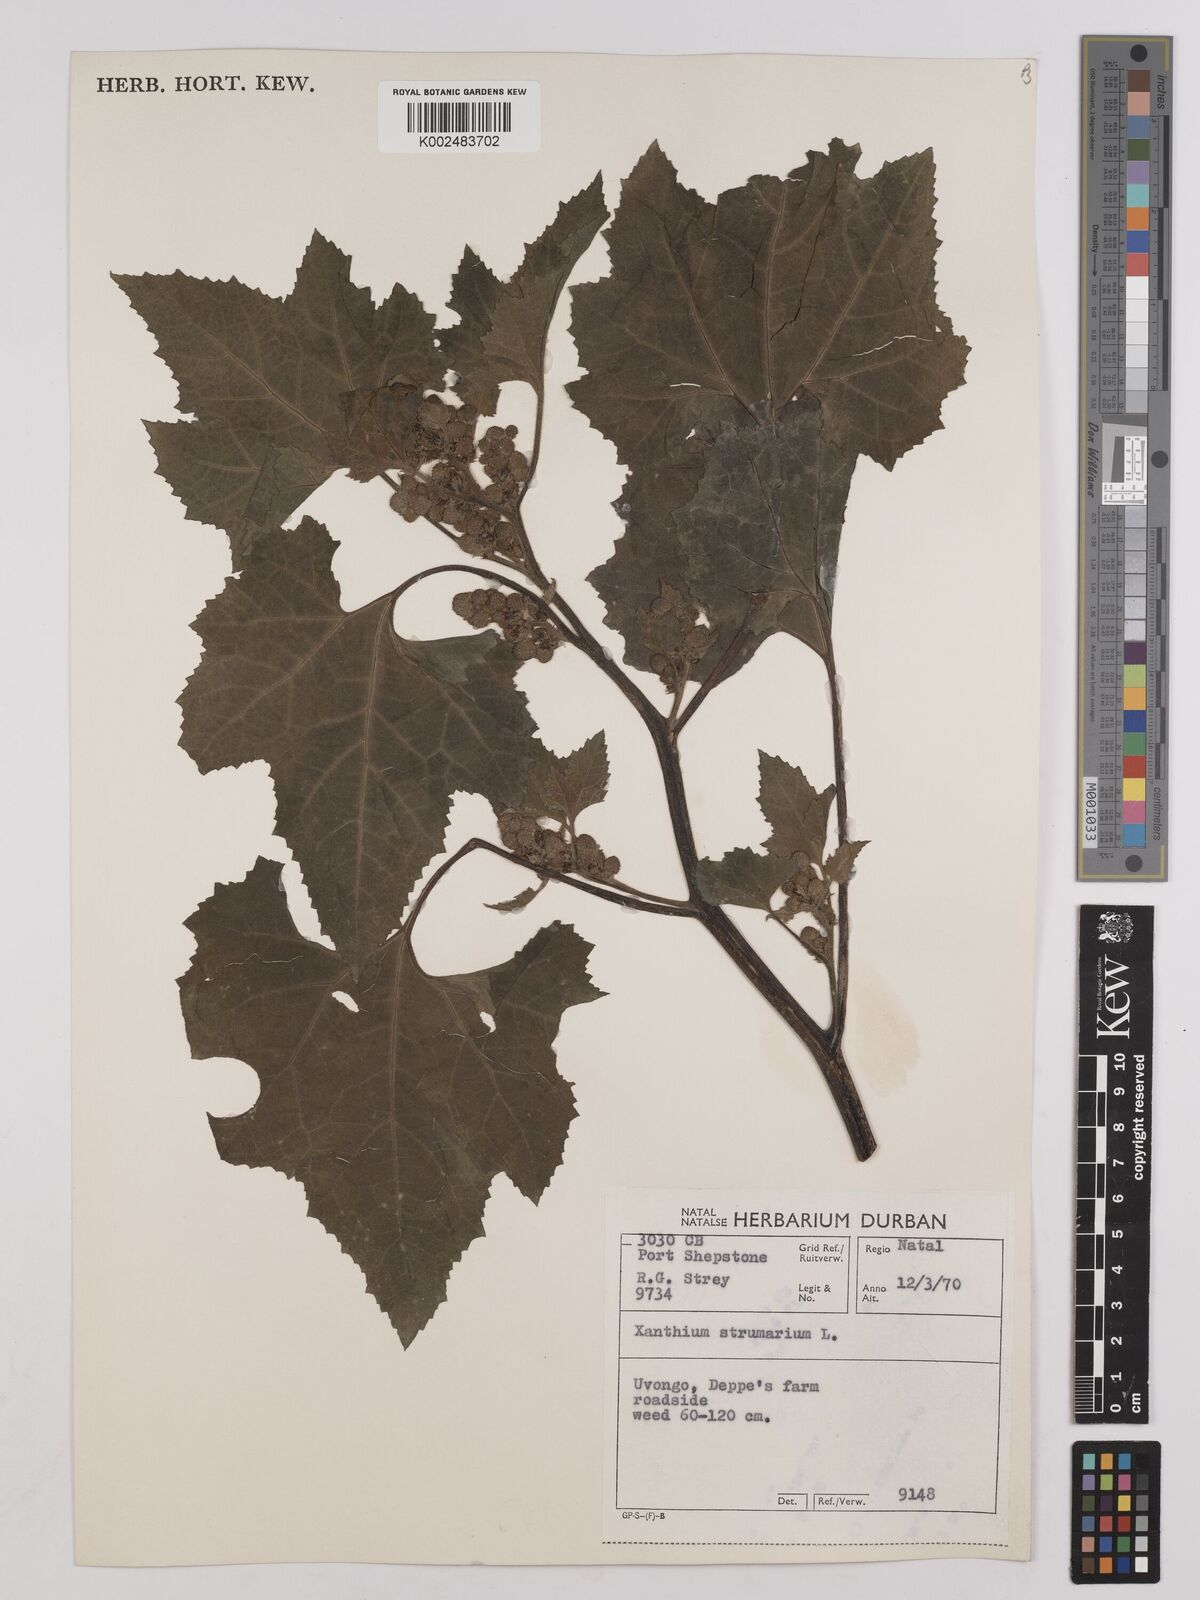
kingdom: Plantae
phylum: Tracheophyta
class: Magnoliopsida
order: Asterales
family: Asteraceae
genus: Xanthium
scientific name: Xanthium orientale
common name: Californian burr
